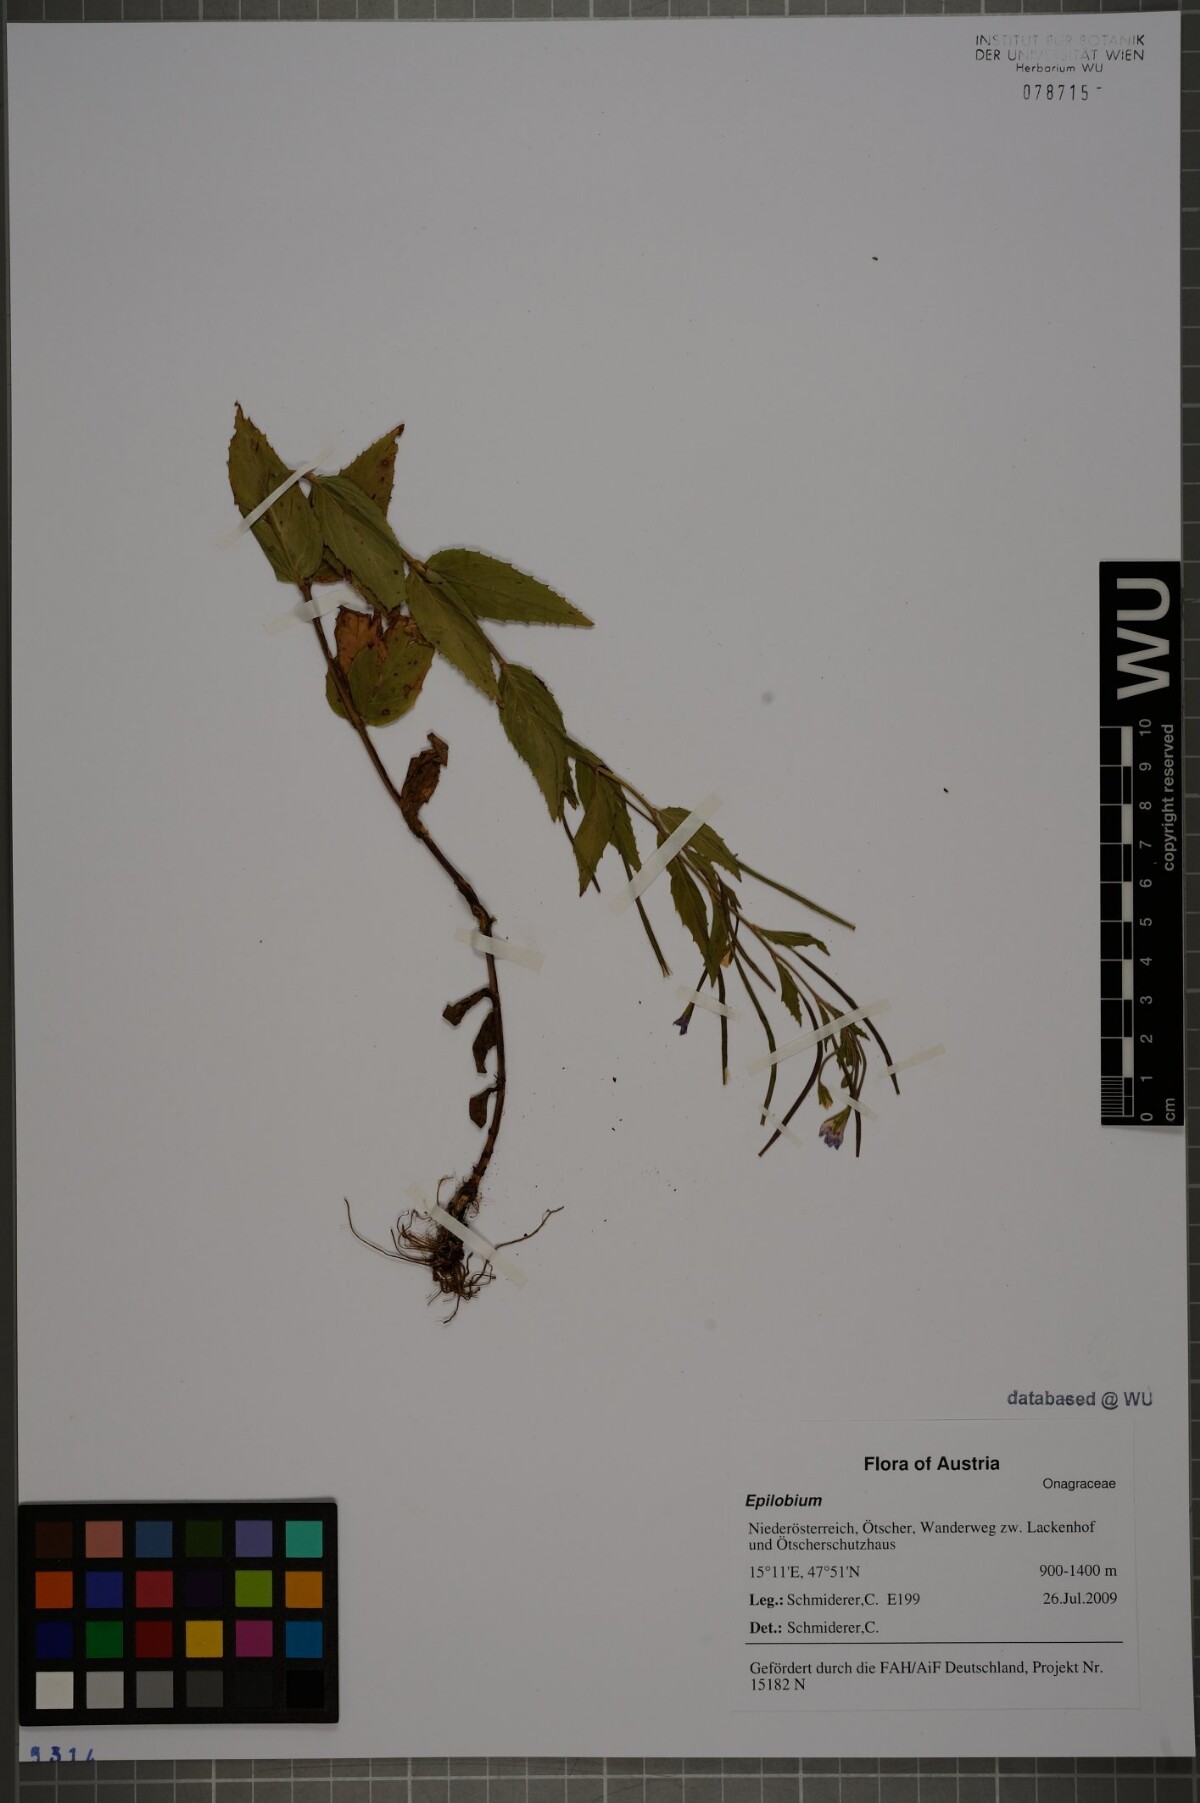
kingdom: Plantae
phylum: Tracheophyta
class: Magnoliopsida
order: Myrtales
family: Onagraceae
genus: Epilobium
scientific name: Epilobium montanum
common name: Broad-leaved willowherb
